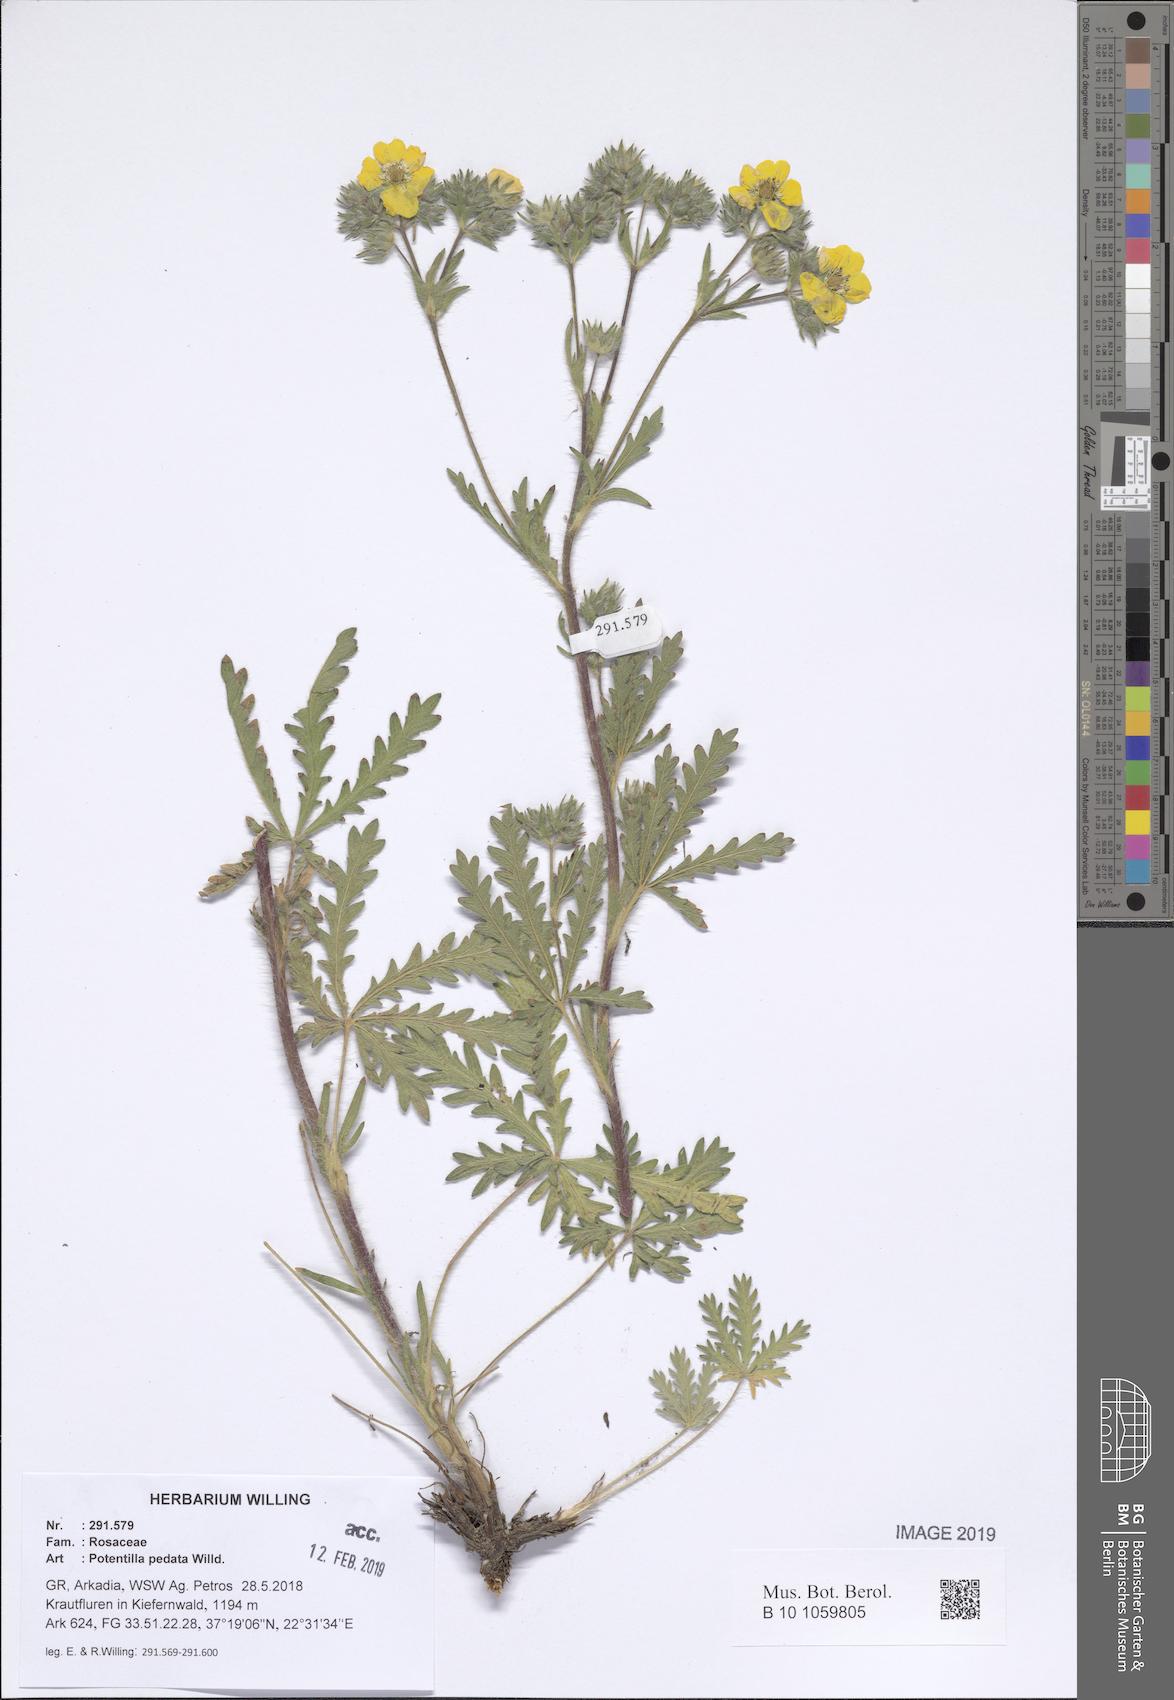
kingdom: Plantae
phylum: Tracheophyta
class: Magnoliopsida
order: Rosales
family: Rosaceae
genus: Potentilla
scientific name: Potentilla pedata
